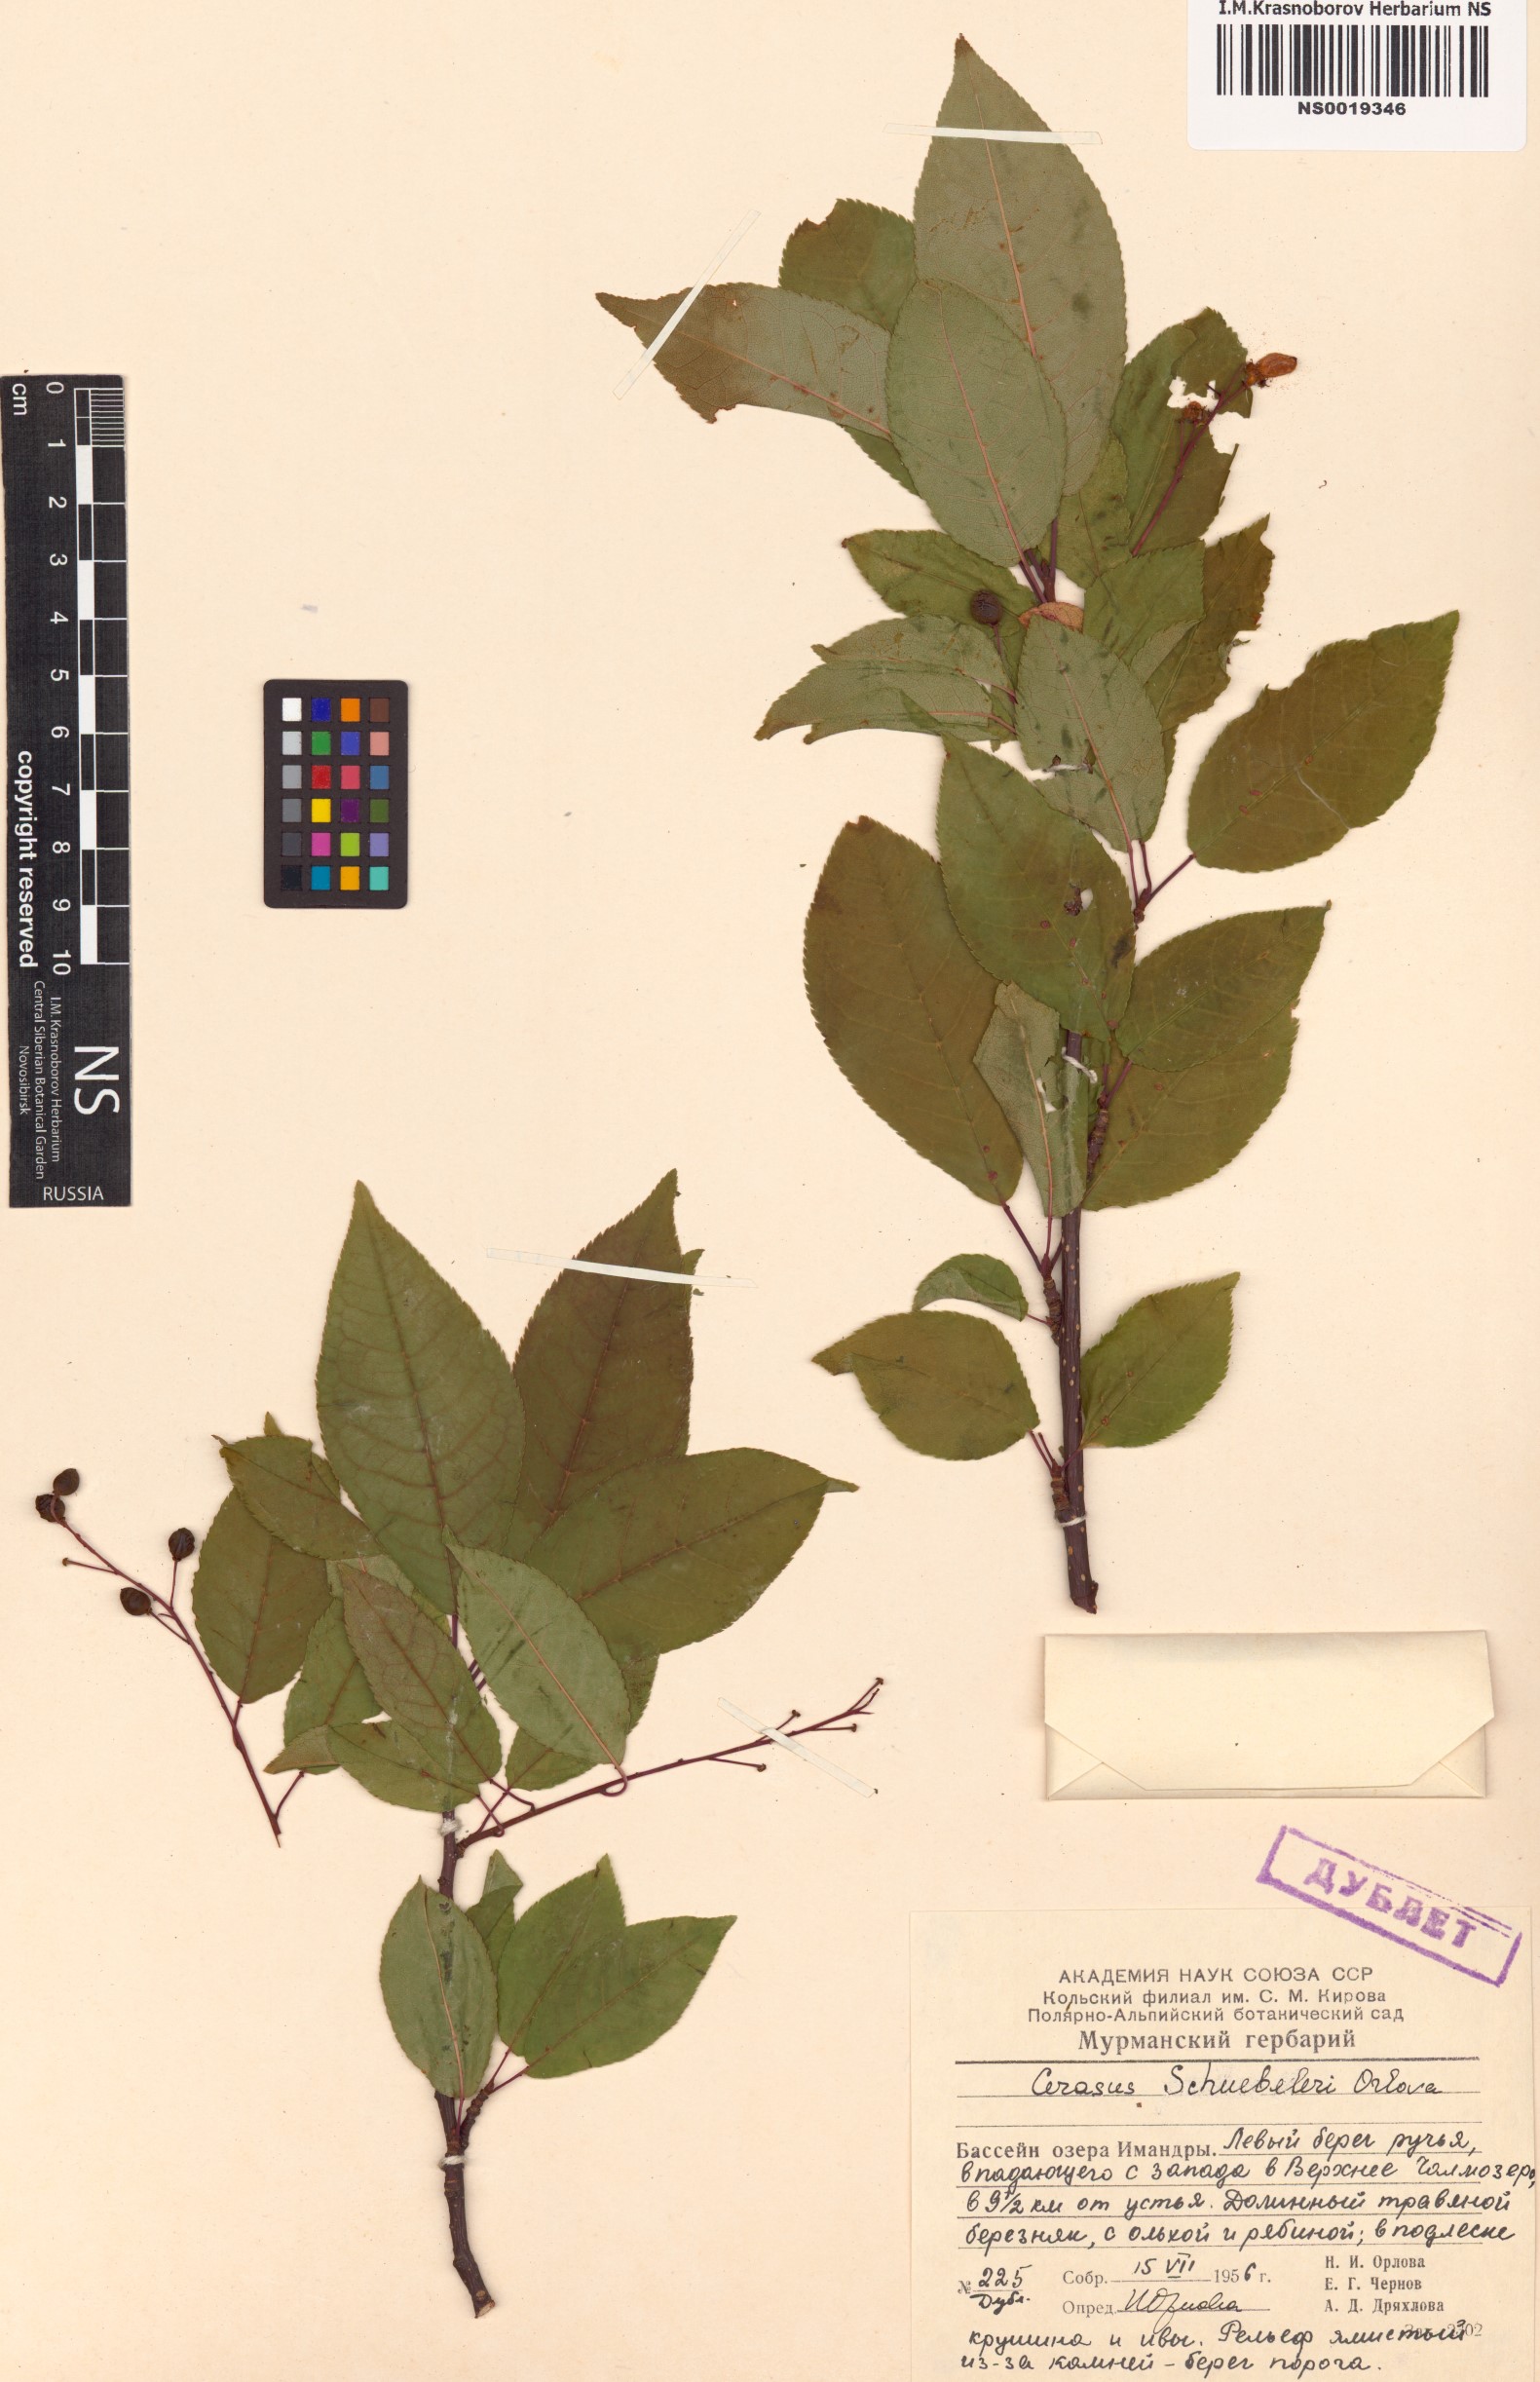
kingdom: Plantae
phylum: Tracheophyta
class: Magnoliopsida
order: Rosales
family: Rosaceae
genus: Prunus
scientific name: Prunus padus
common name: Bird cherry
